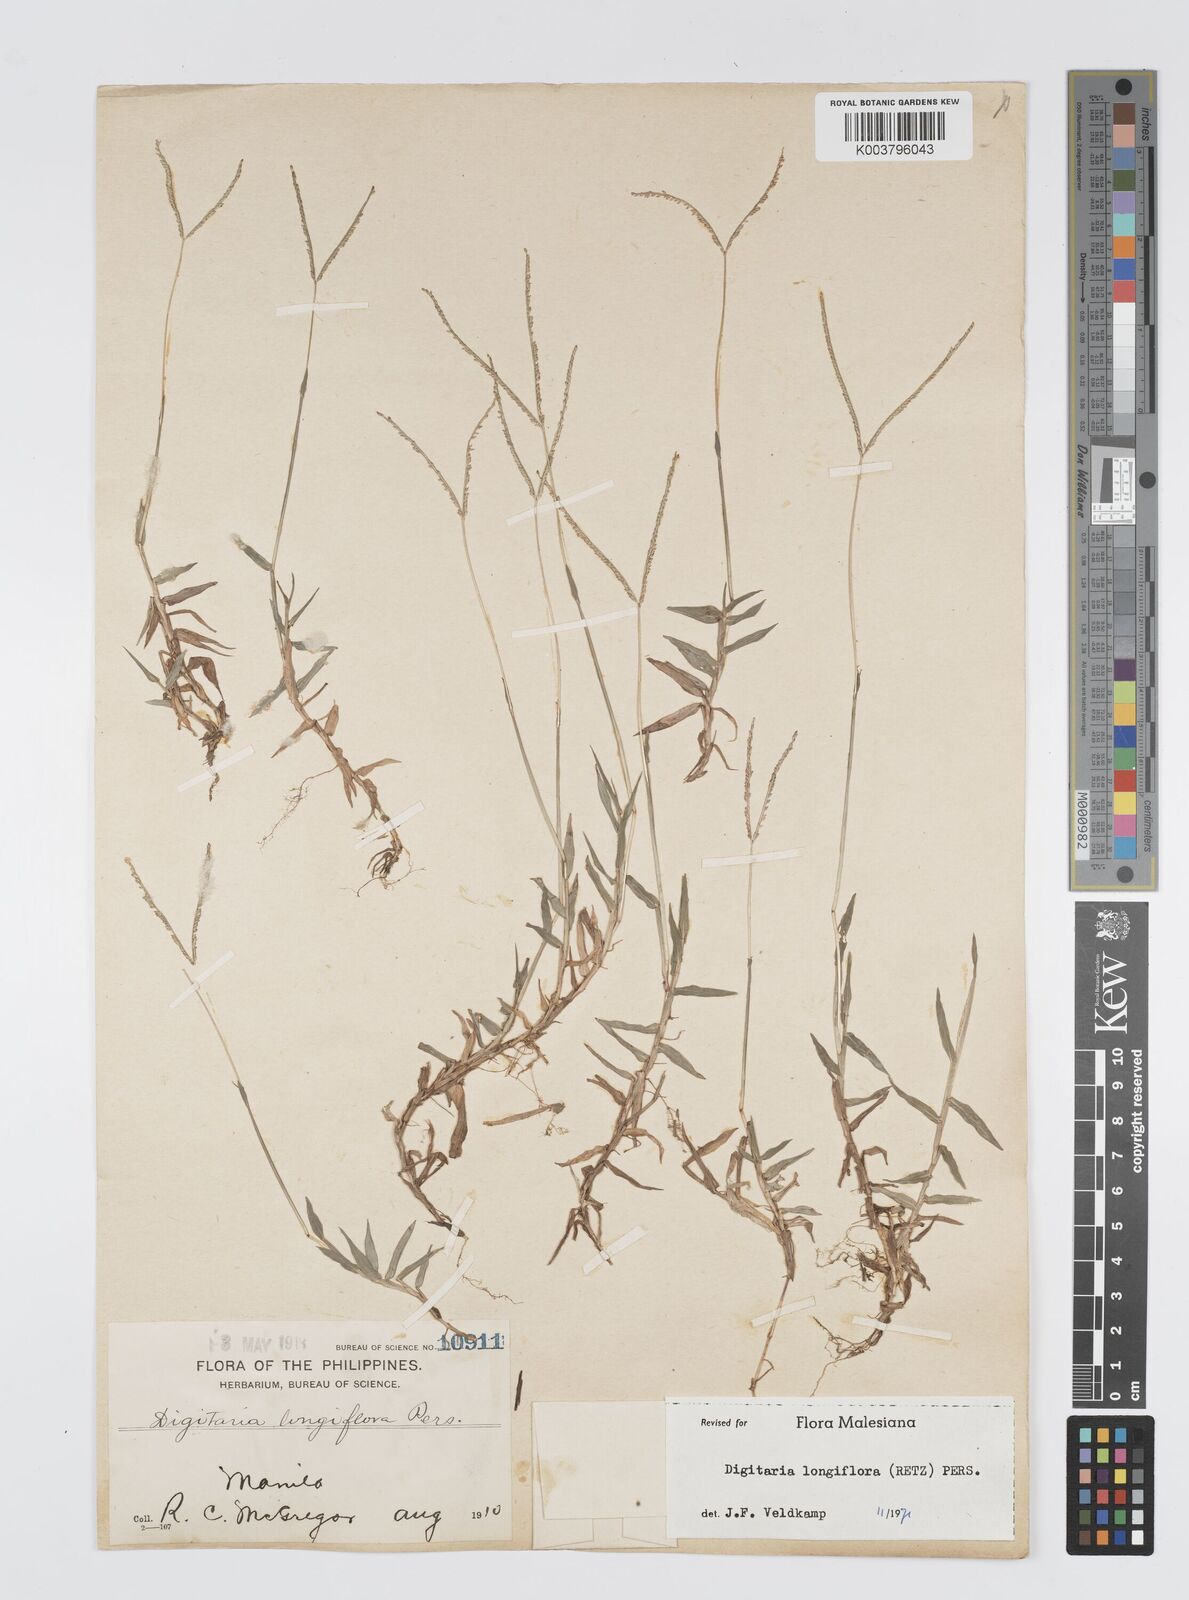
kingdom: Plantae
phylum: Tracheophyta
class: Liliopsida
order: Poales
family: Poaceae
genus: Digitaria
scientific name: Digitaria longiflora
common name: Wire crabgrass
